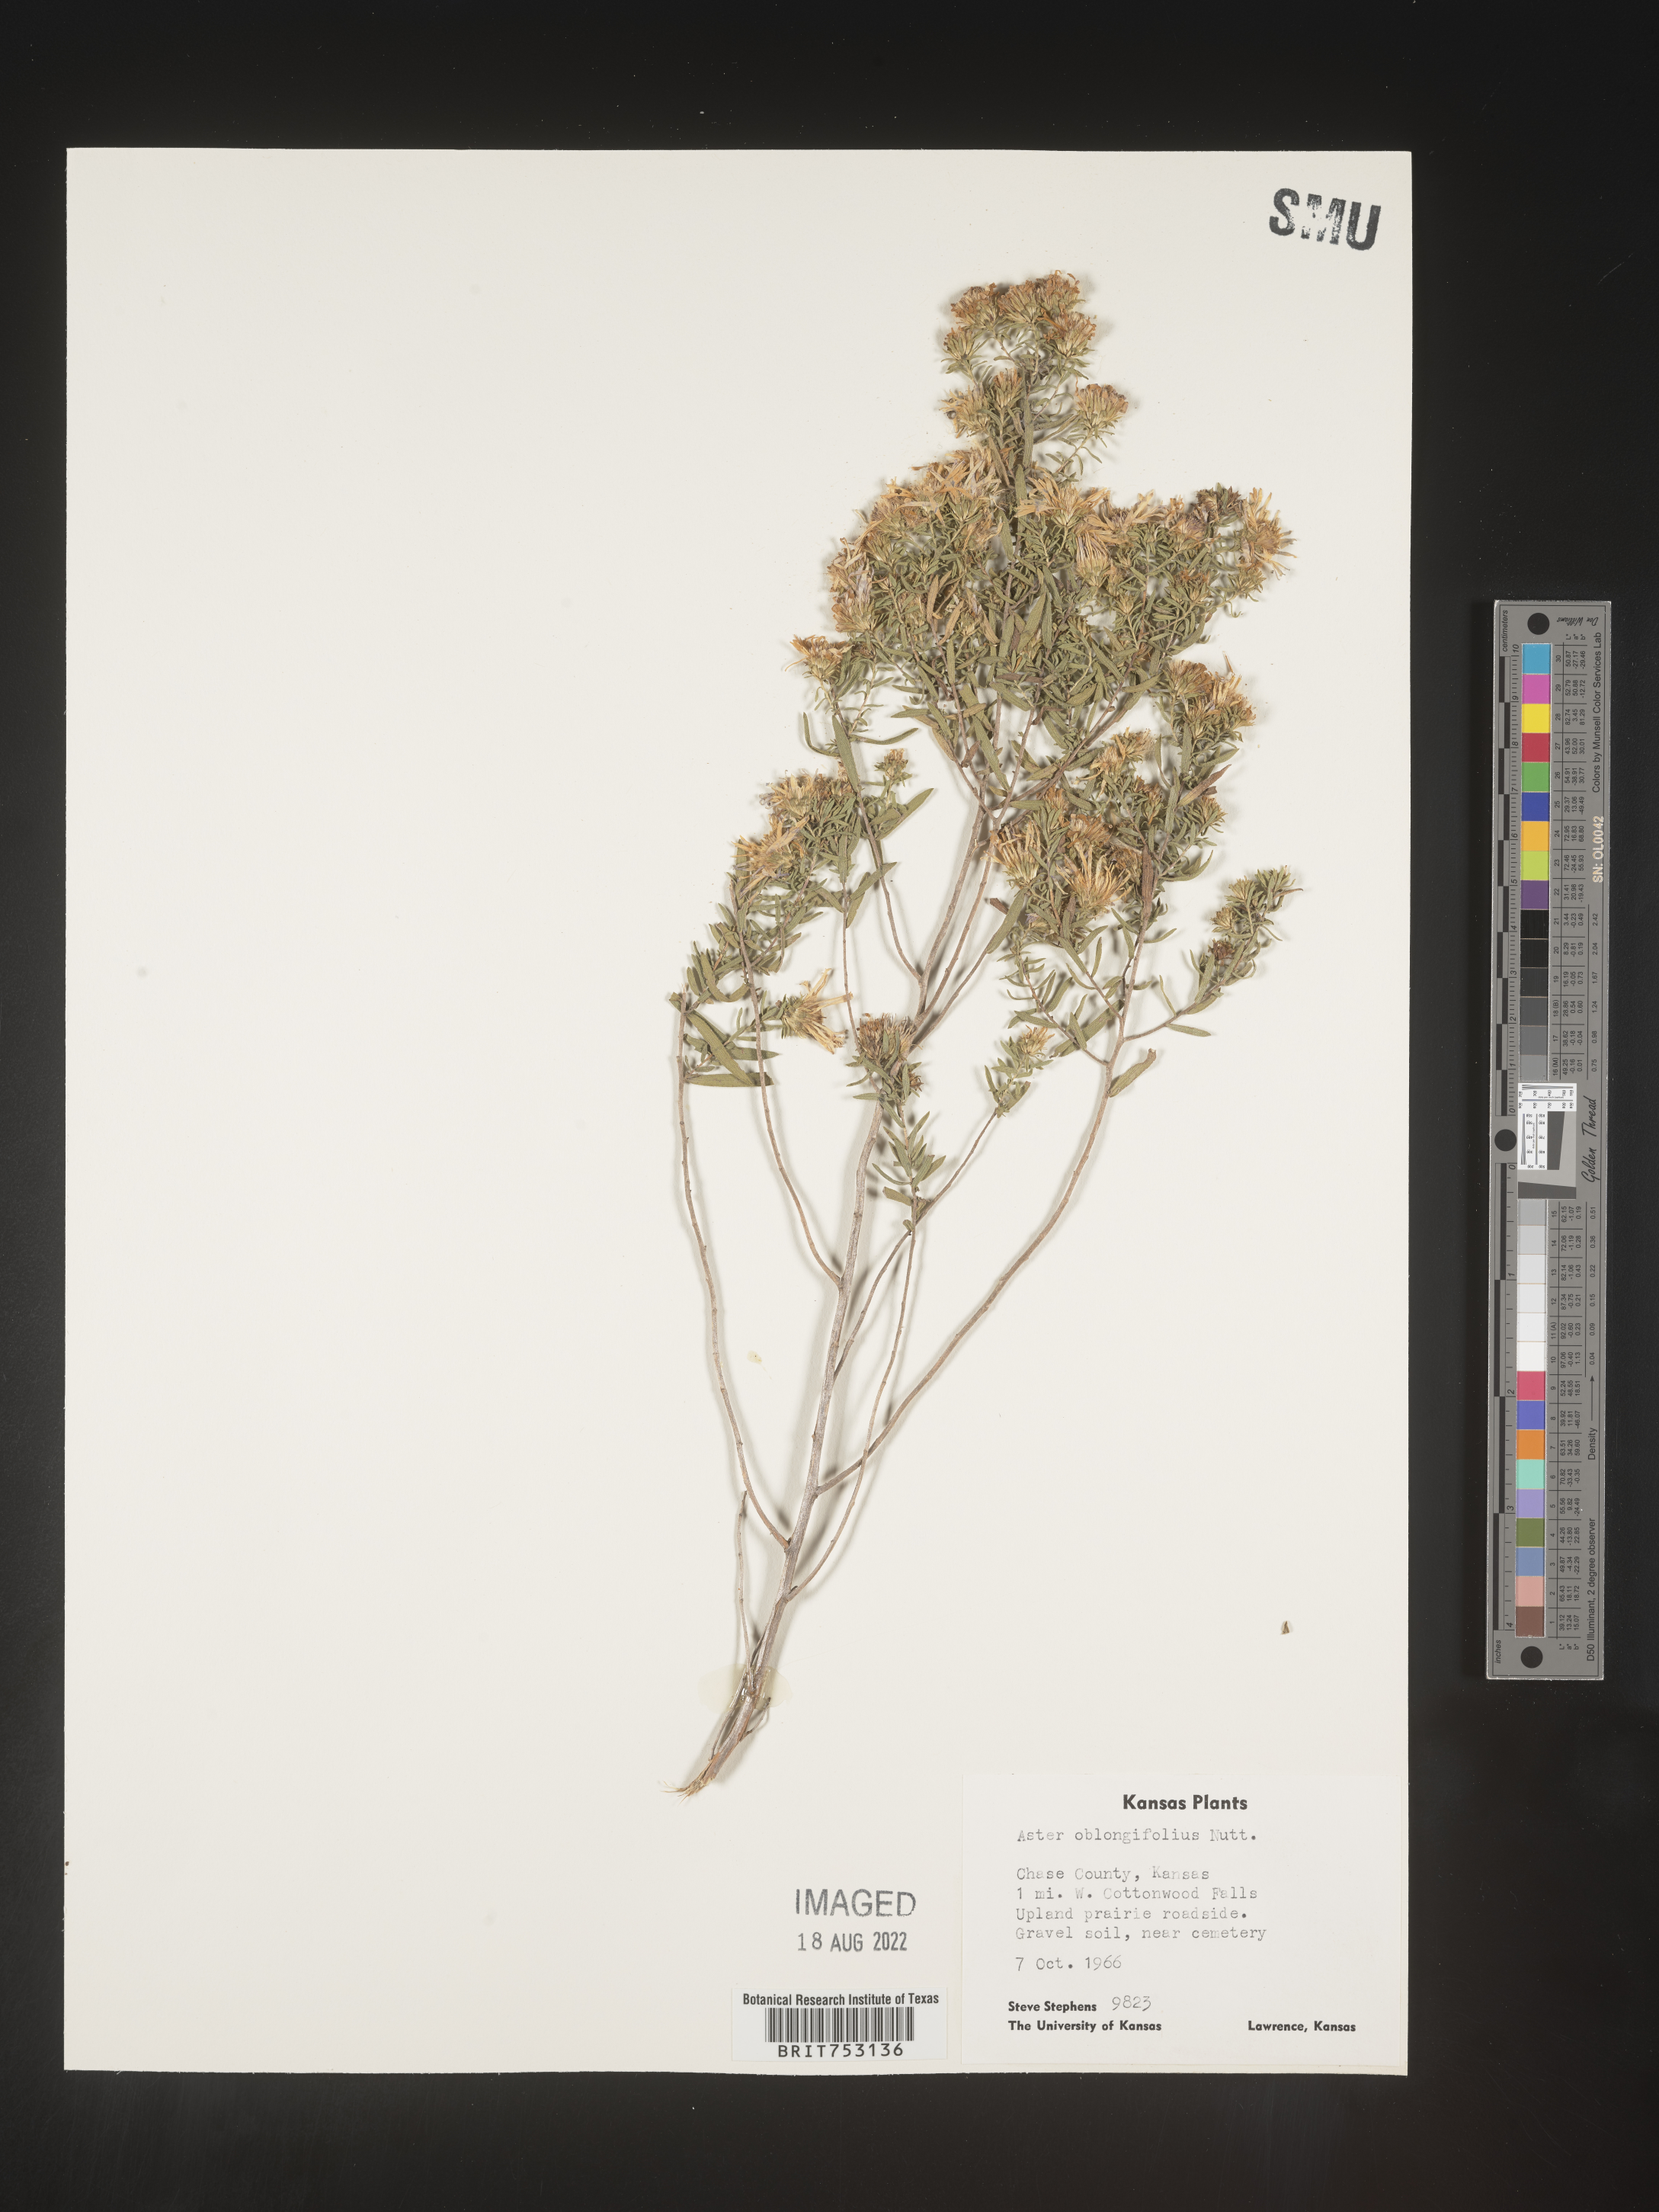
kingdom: Plantae
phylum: Tracheophyta
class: Magnoliopsida
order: Asterales
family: Asteraceae
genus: Symphyotrichum
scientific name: Symphyotrichum oblongifolium
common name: Aromatic aster
